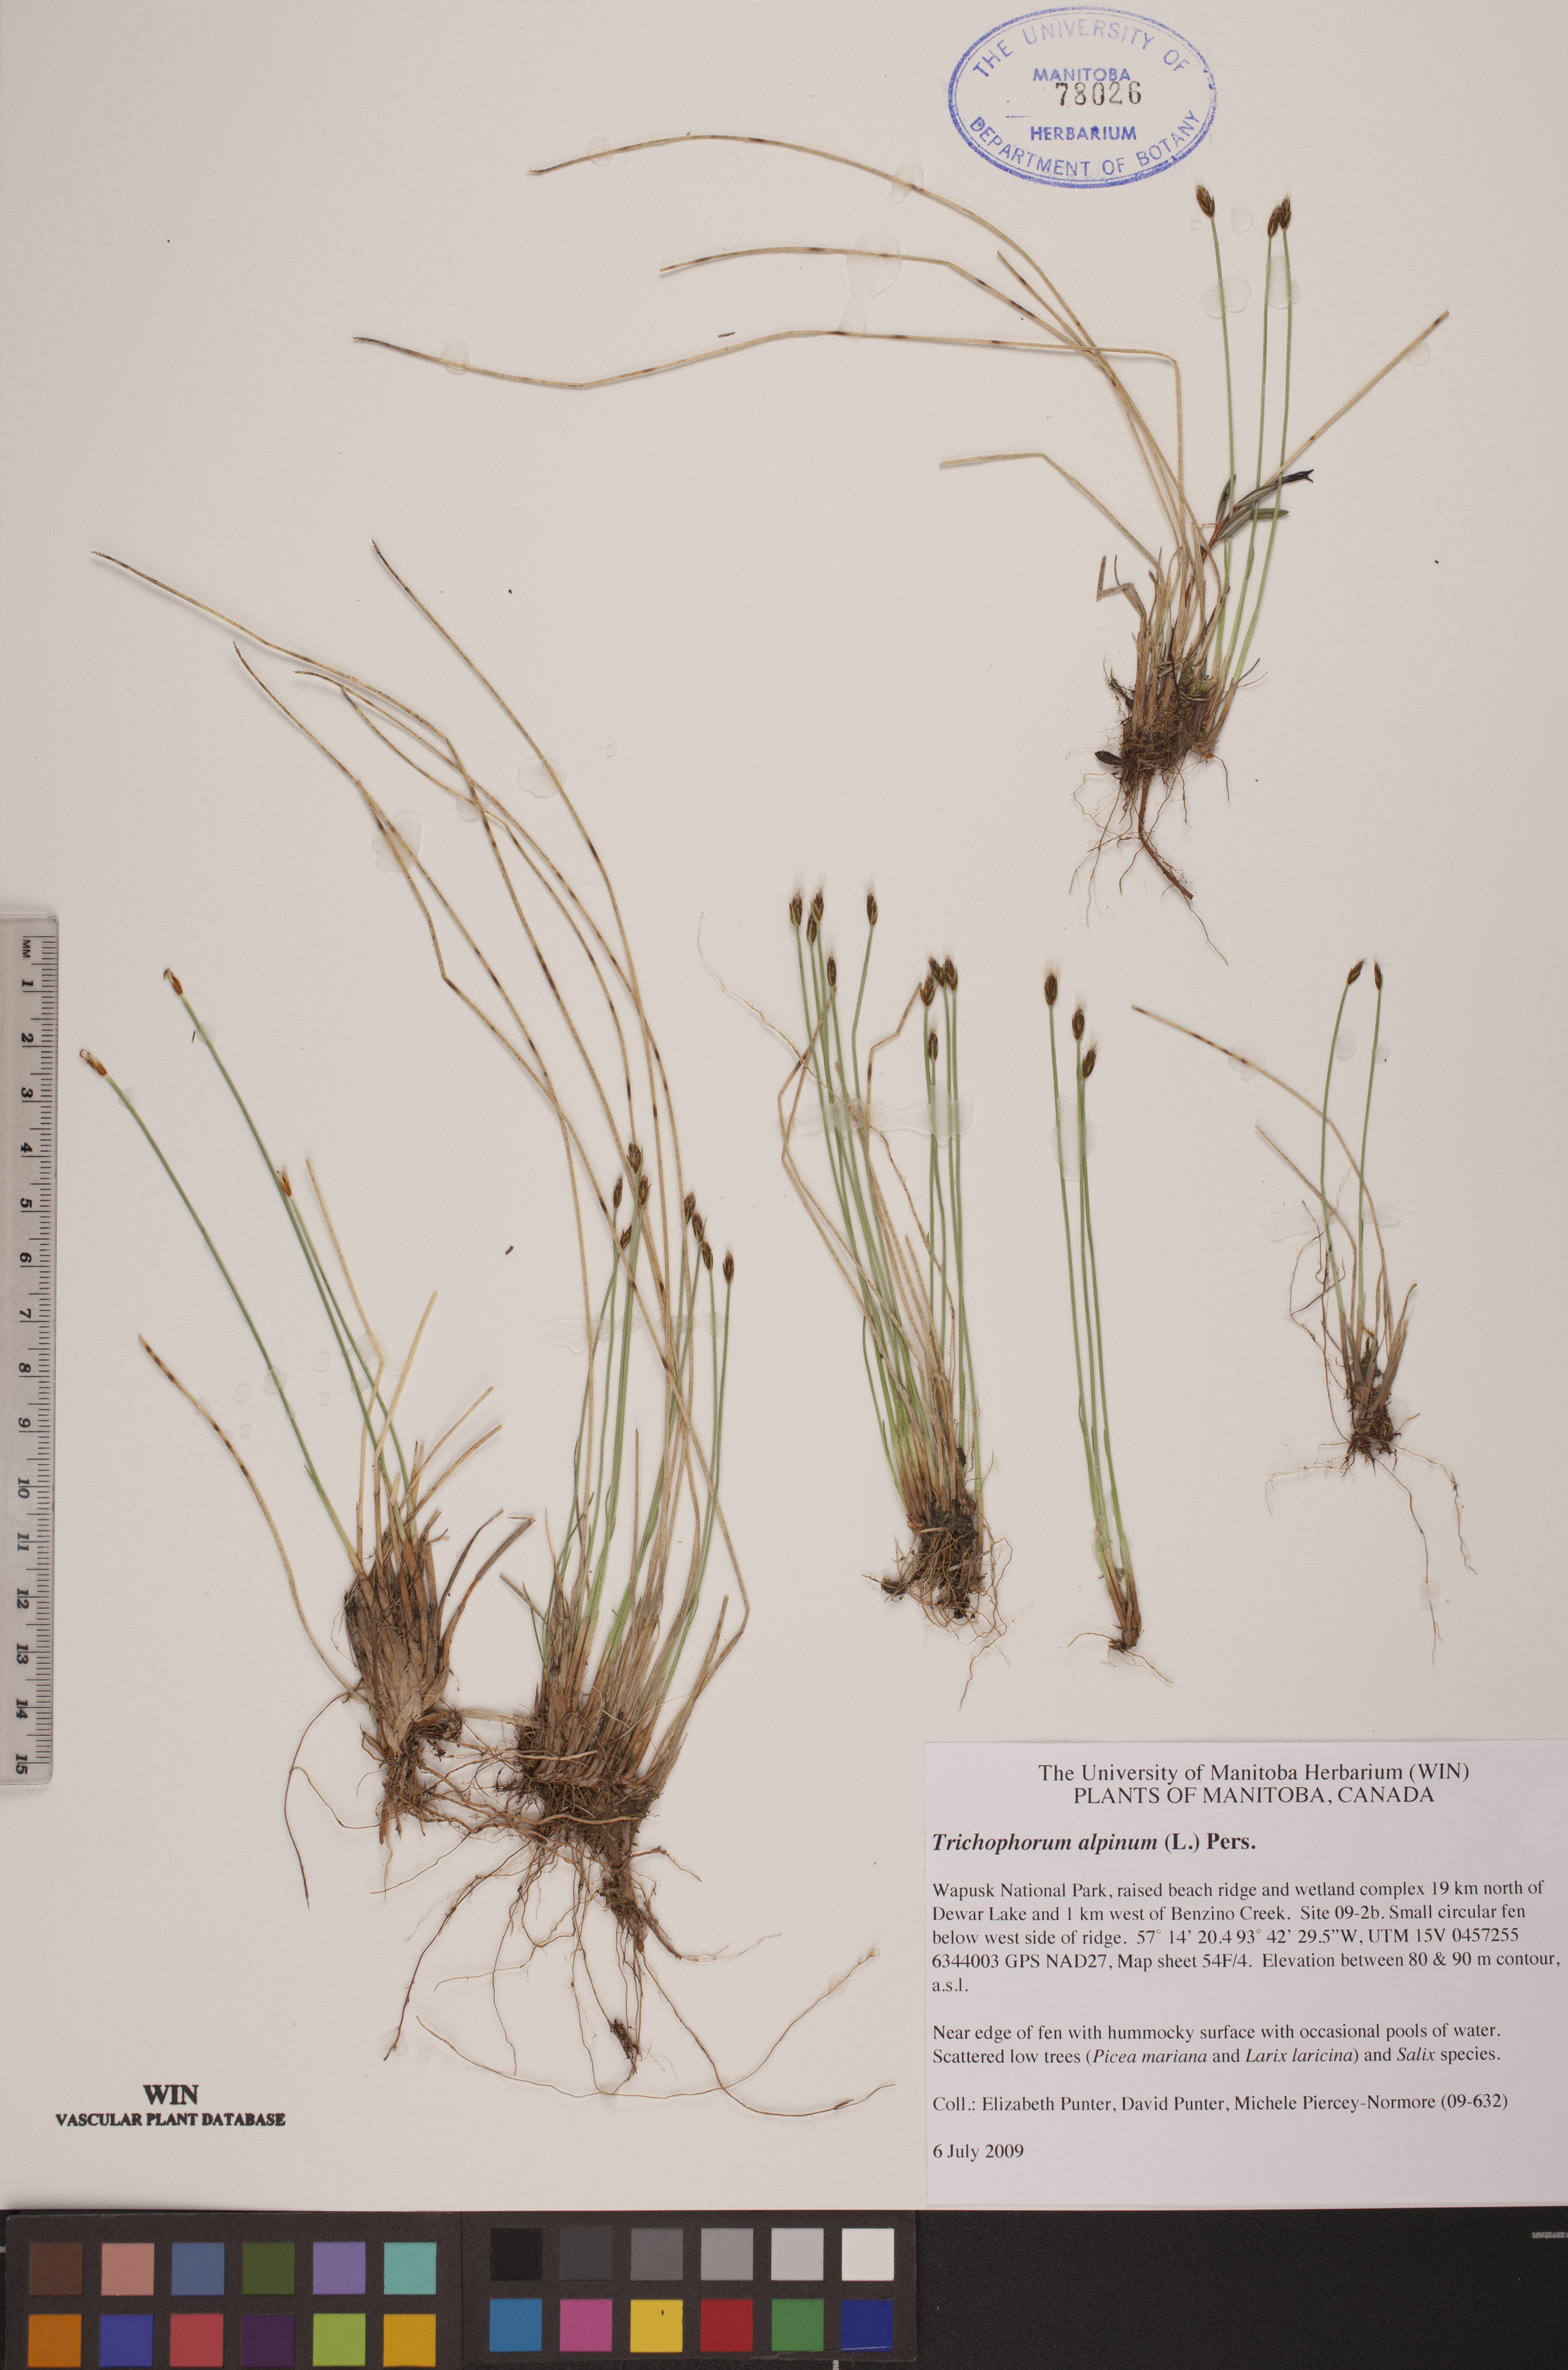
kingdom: Plantae
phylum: Tracheophyta
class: Liliopsida
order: Poales
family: Cyperaceae
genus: Trichophorum
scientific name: Trichophorum alpinum
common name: Alpine bulrush
